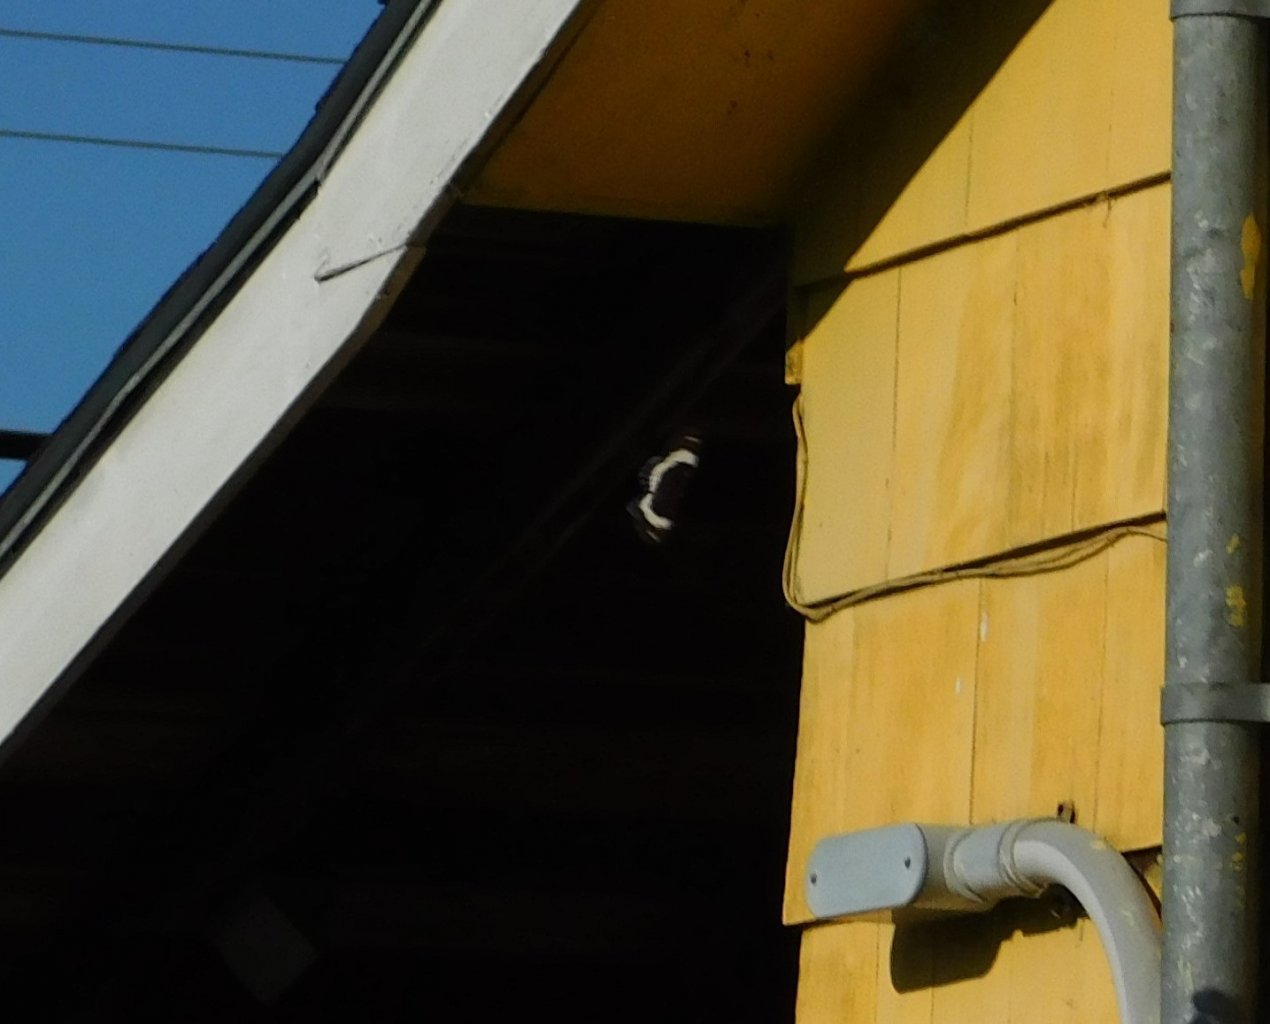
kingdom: Animalia
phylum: Arthropoda
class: Insecta
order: Lepidoptera
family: Nymphalidae
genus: Limenitis
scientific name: Limenitis arthemis
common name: Red-spotted Admiral
